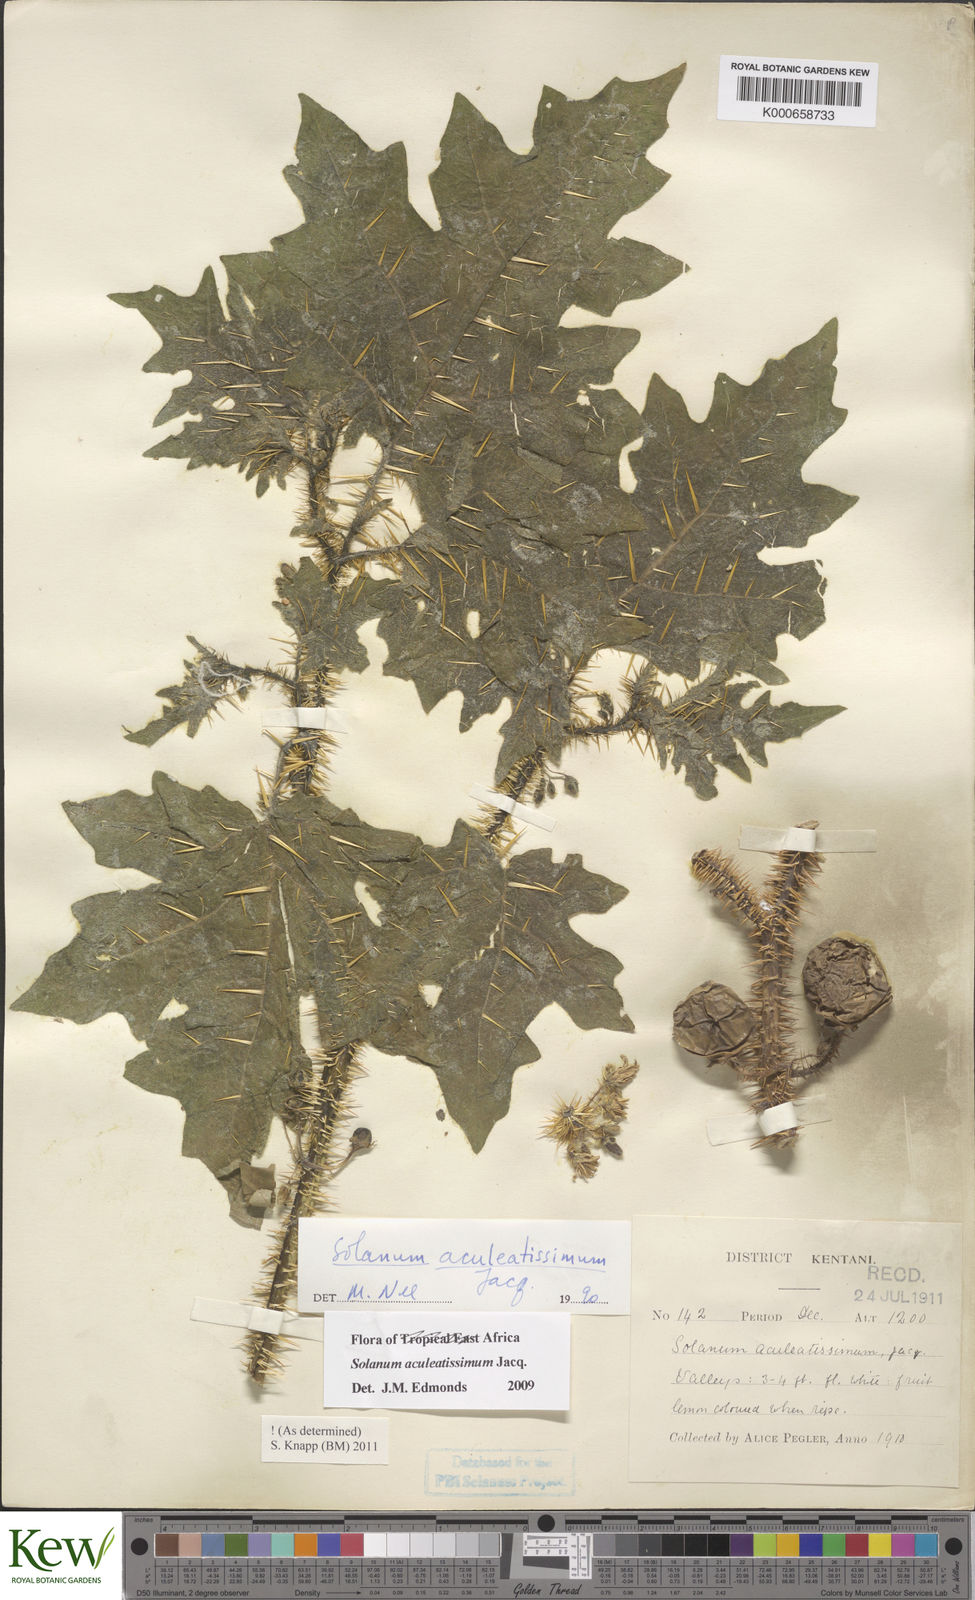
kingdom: Plantae
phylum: Tracheophyta
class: Magnoliopsida
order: Solanales
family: Solanaceae
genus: Solanum
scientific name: Solanum aculeatissimum
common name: Dutch eggplant
